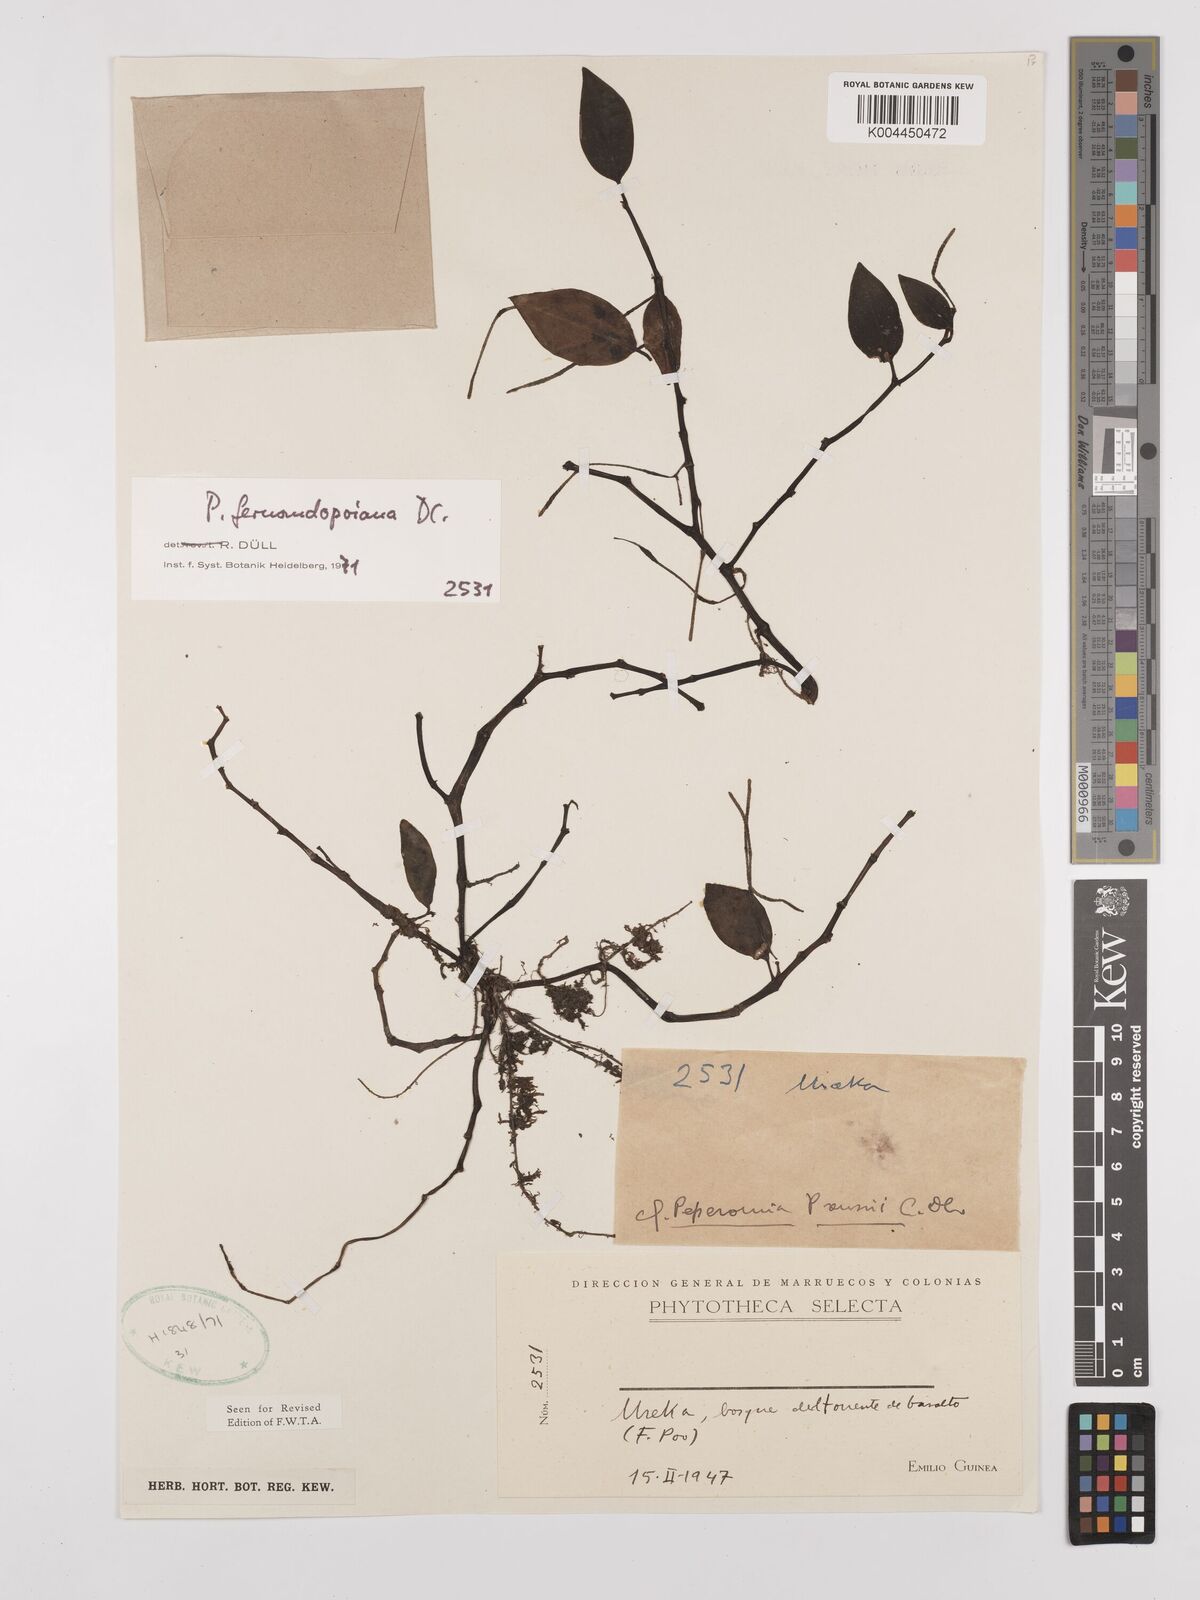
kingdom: Plantae
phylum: Tracheophyta
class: Magnoliopsida
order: Piperales
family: Piperaceae
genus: Peperomia
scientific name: Peperomia fernandopoiana
